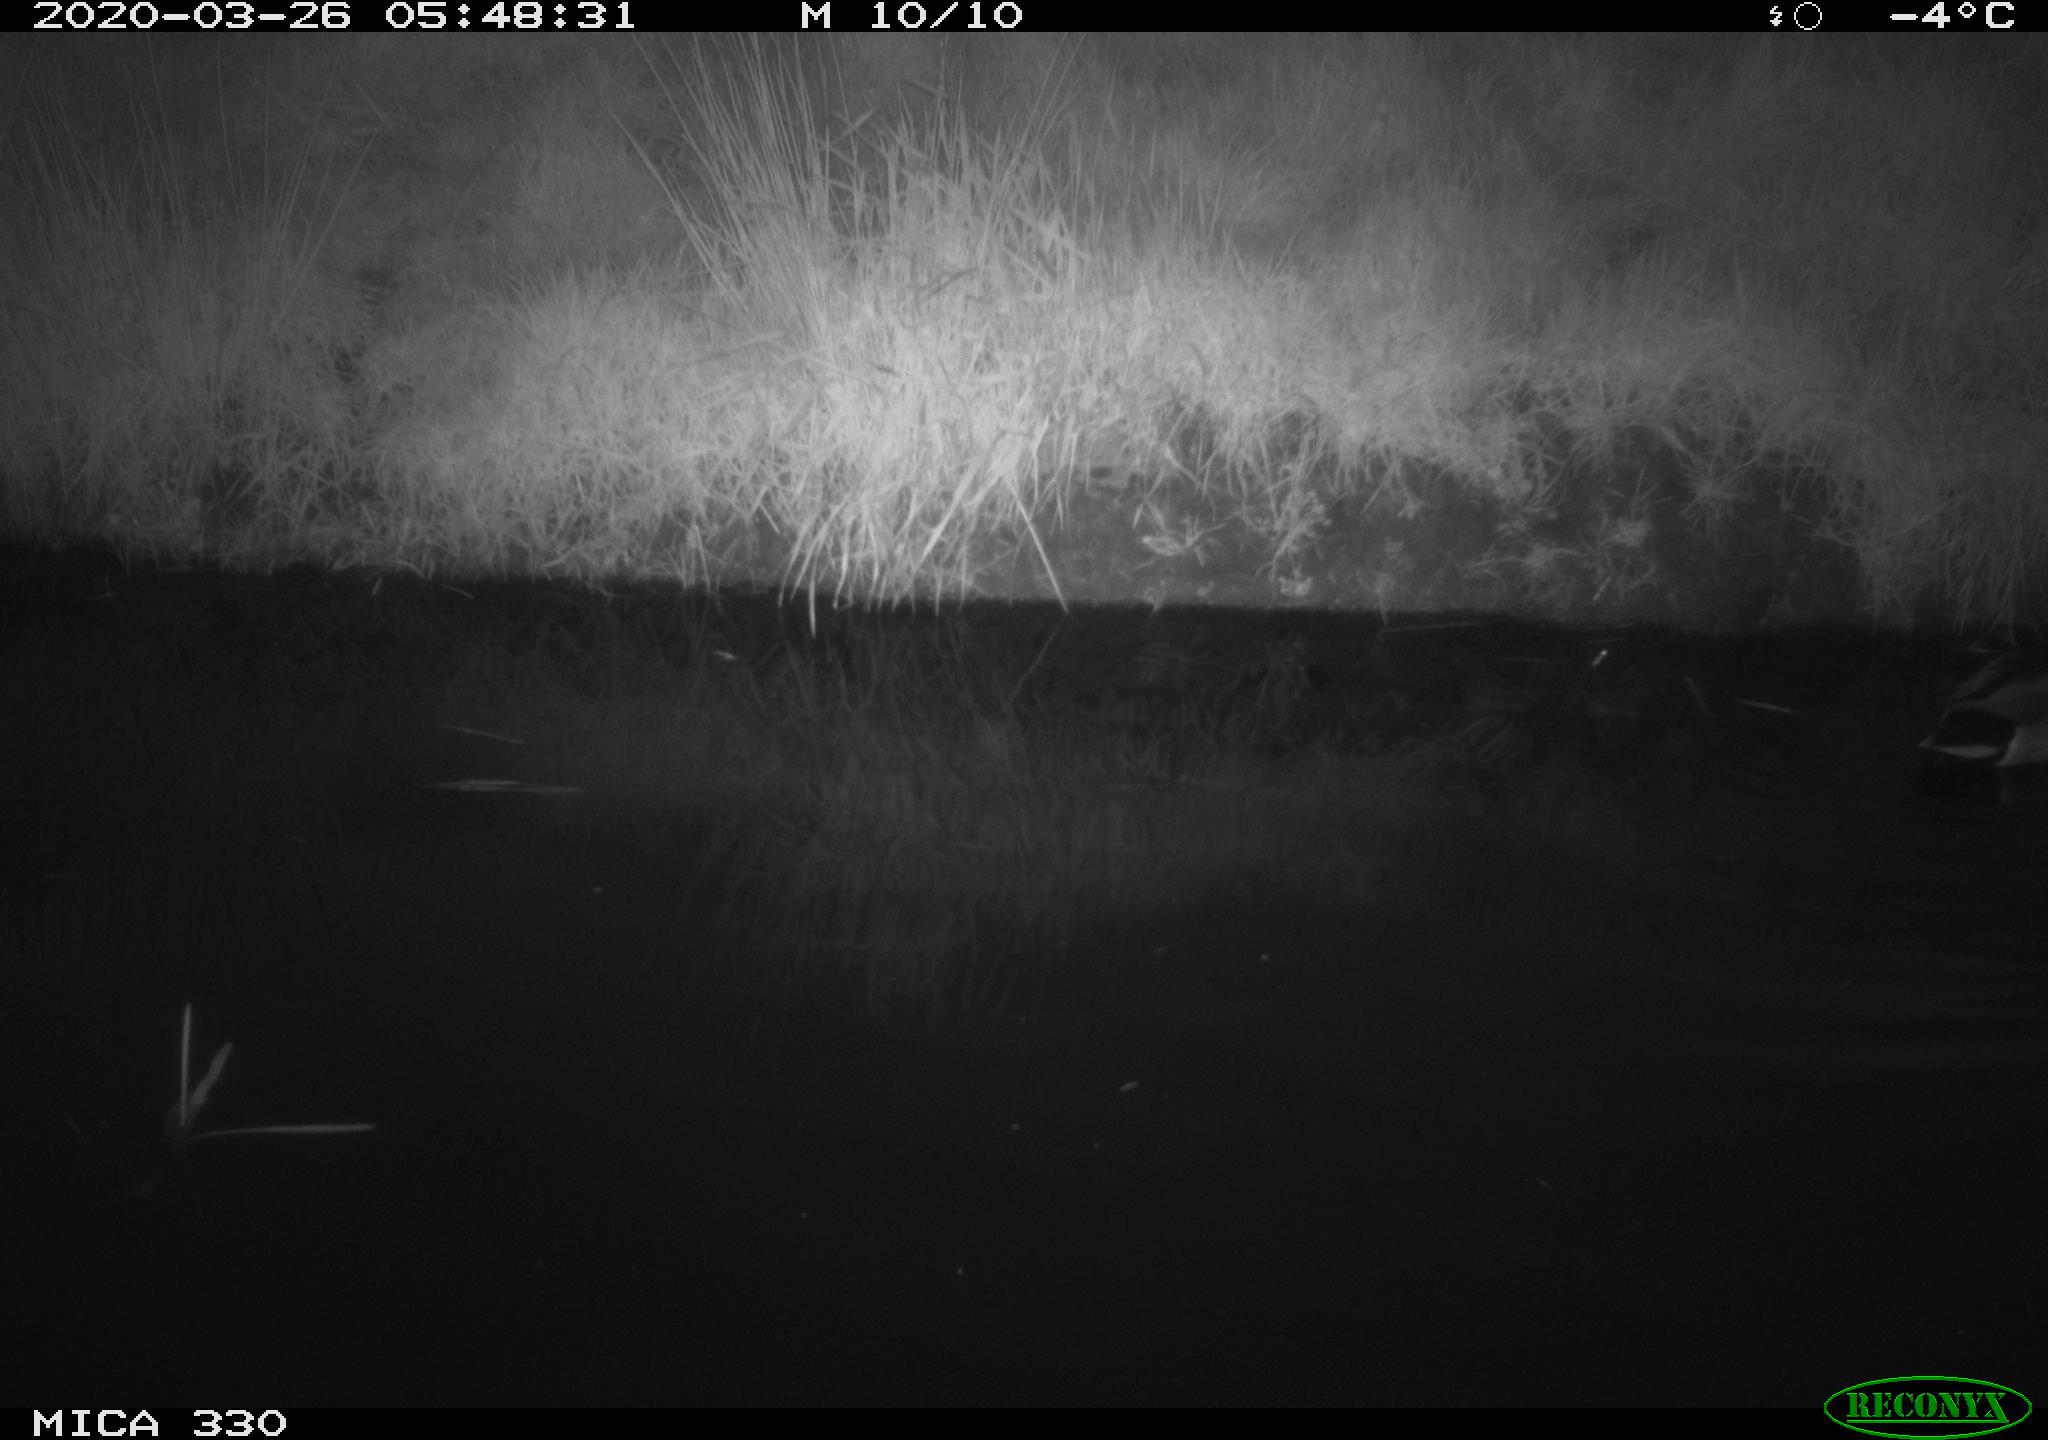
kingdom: Animalia
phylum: Chordata
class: Aves
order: Anseriformes
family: Anatidae
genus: Anas
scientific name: Anas platyrhynchos
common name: Mallard
